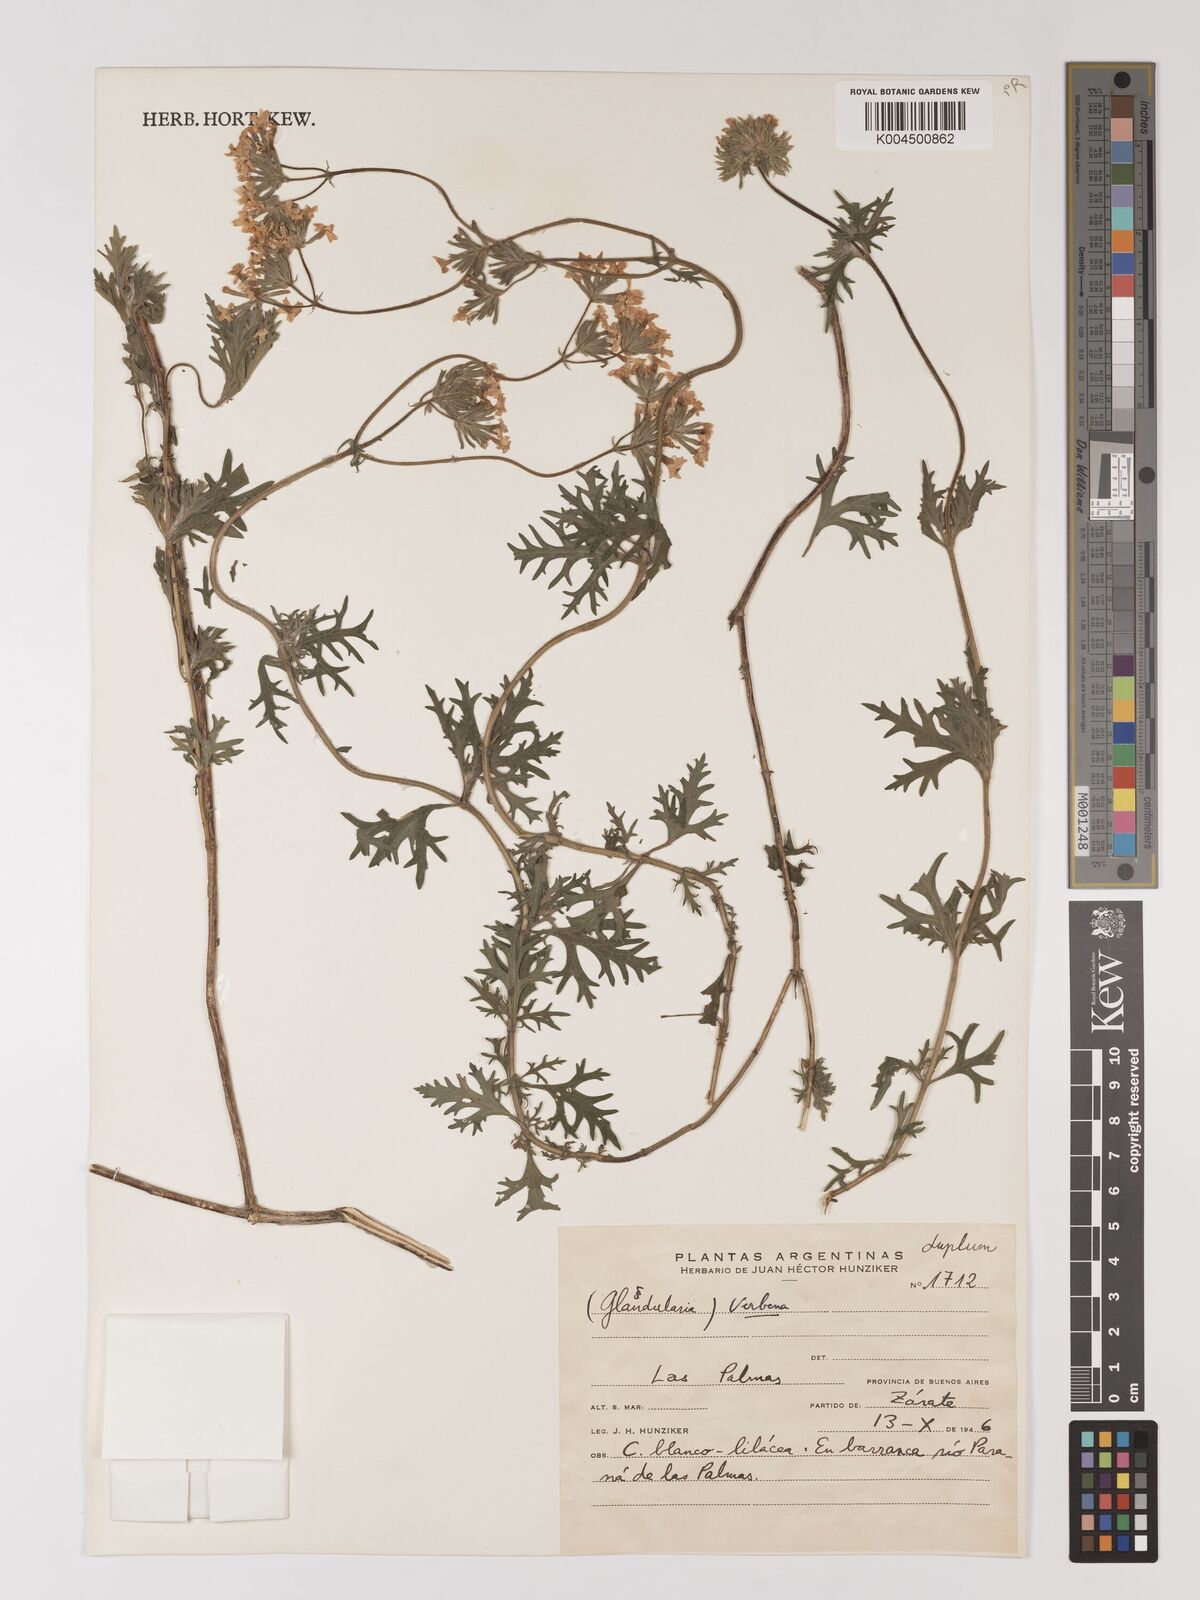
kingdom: Plantae
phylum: Tracheophyta
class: Magnoliopsida
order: Lamiales
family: Verbenaceae
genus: Verbena
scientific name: Verbena
